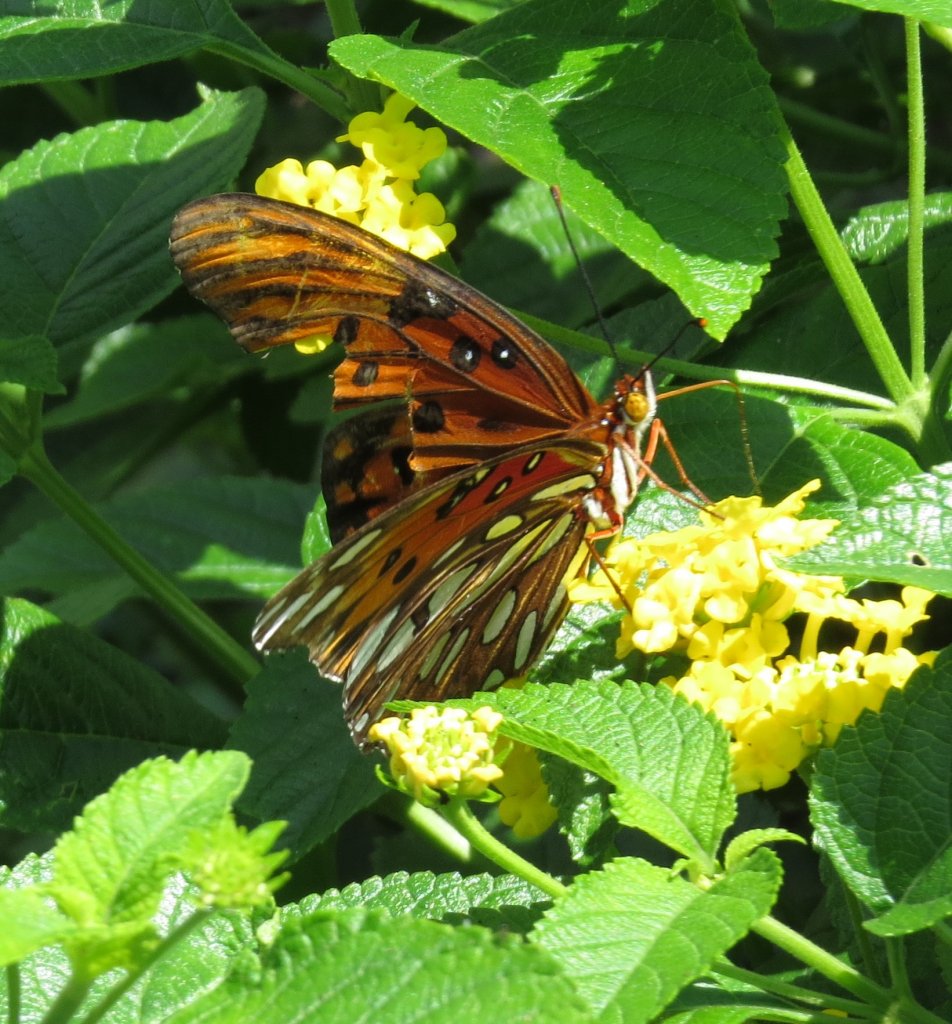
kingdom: Animalia
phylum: Arthropoda
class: Insecta
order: Lepidoptera
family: Nymphalidae
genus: Dione
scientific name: Dione vanillae
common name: Gulf Fritillary
